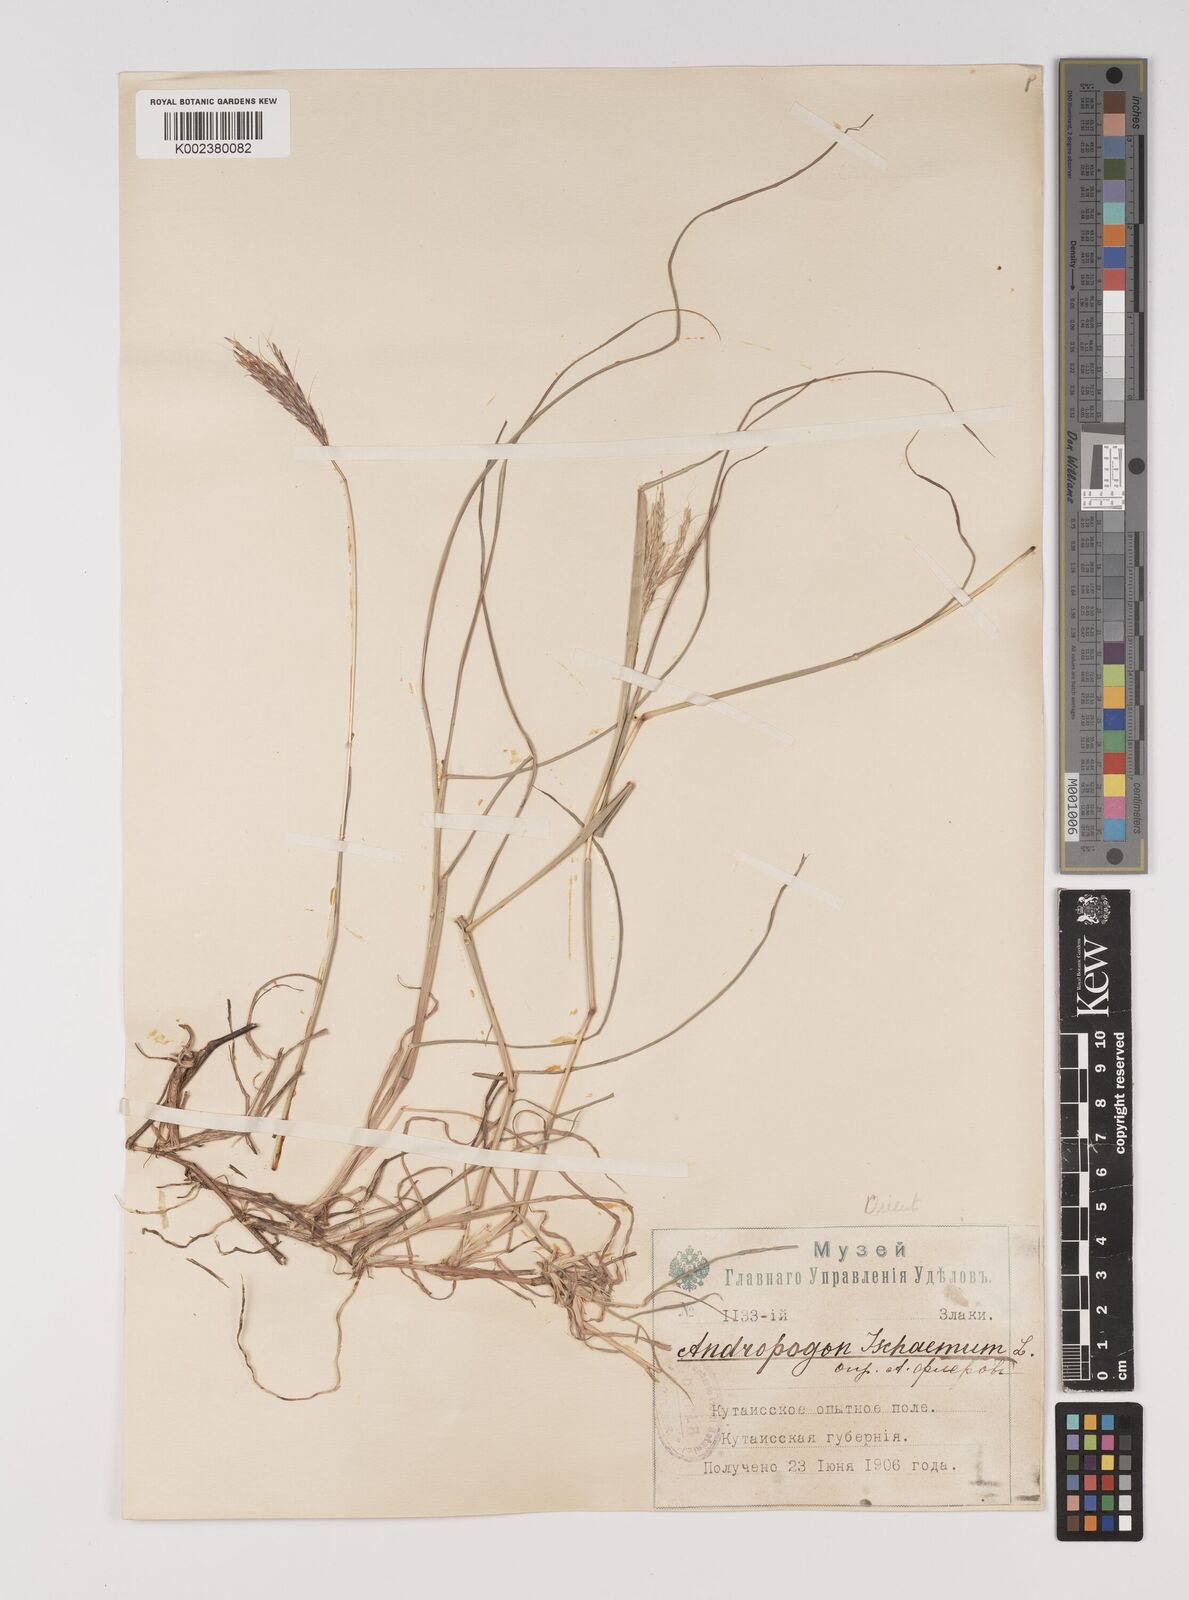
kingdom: Plantae
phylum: Tracheophyta
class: Liliopsida
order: Poales
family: Poaceae
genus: Bothriochloa
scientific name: Bothriochloa ischaemum
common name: Yellow bluestem
